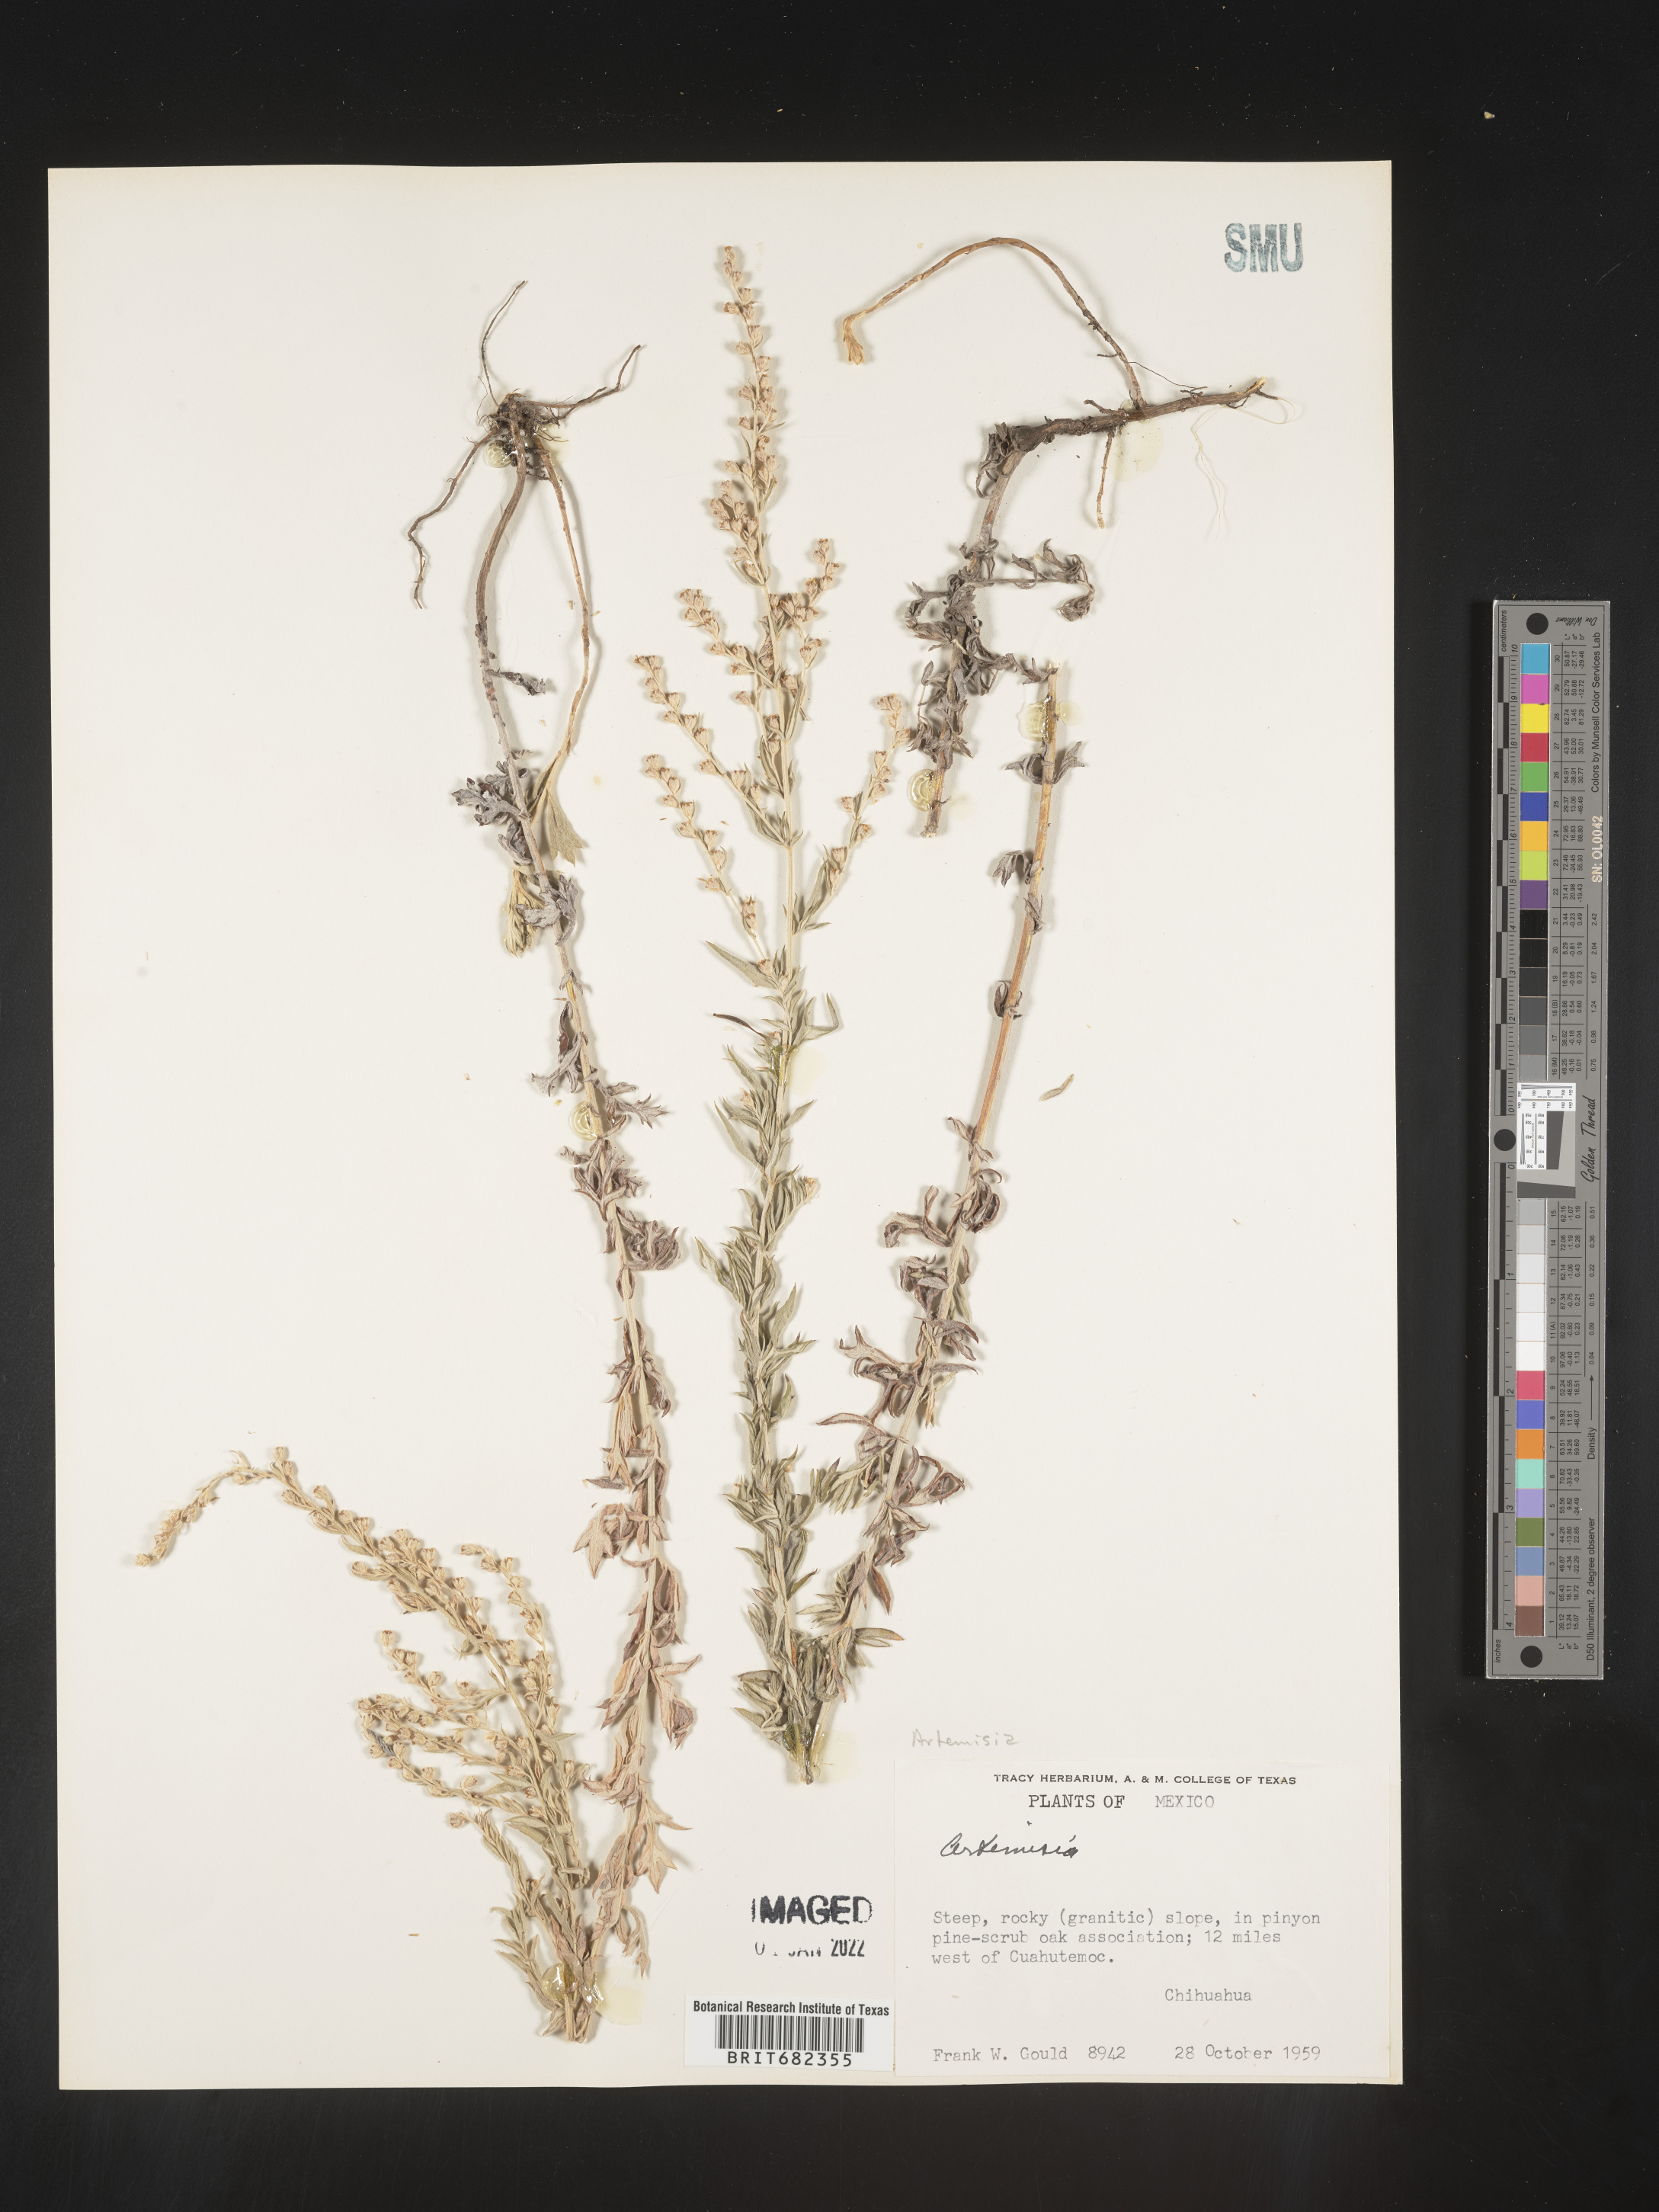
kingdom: Plantae
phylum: Tracheophyta
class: Magnoliopsida
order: Asterales
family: Asteraceae
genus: Artemisia
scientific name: Artemisia
